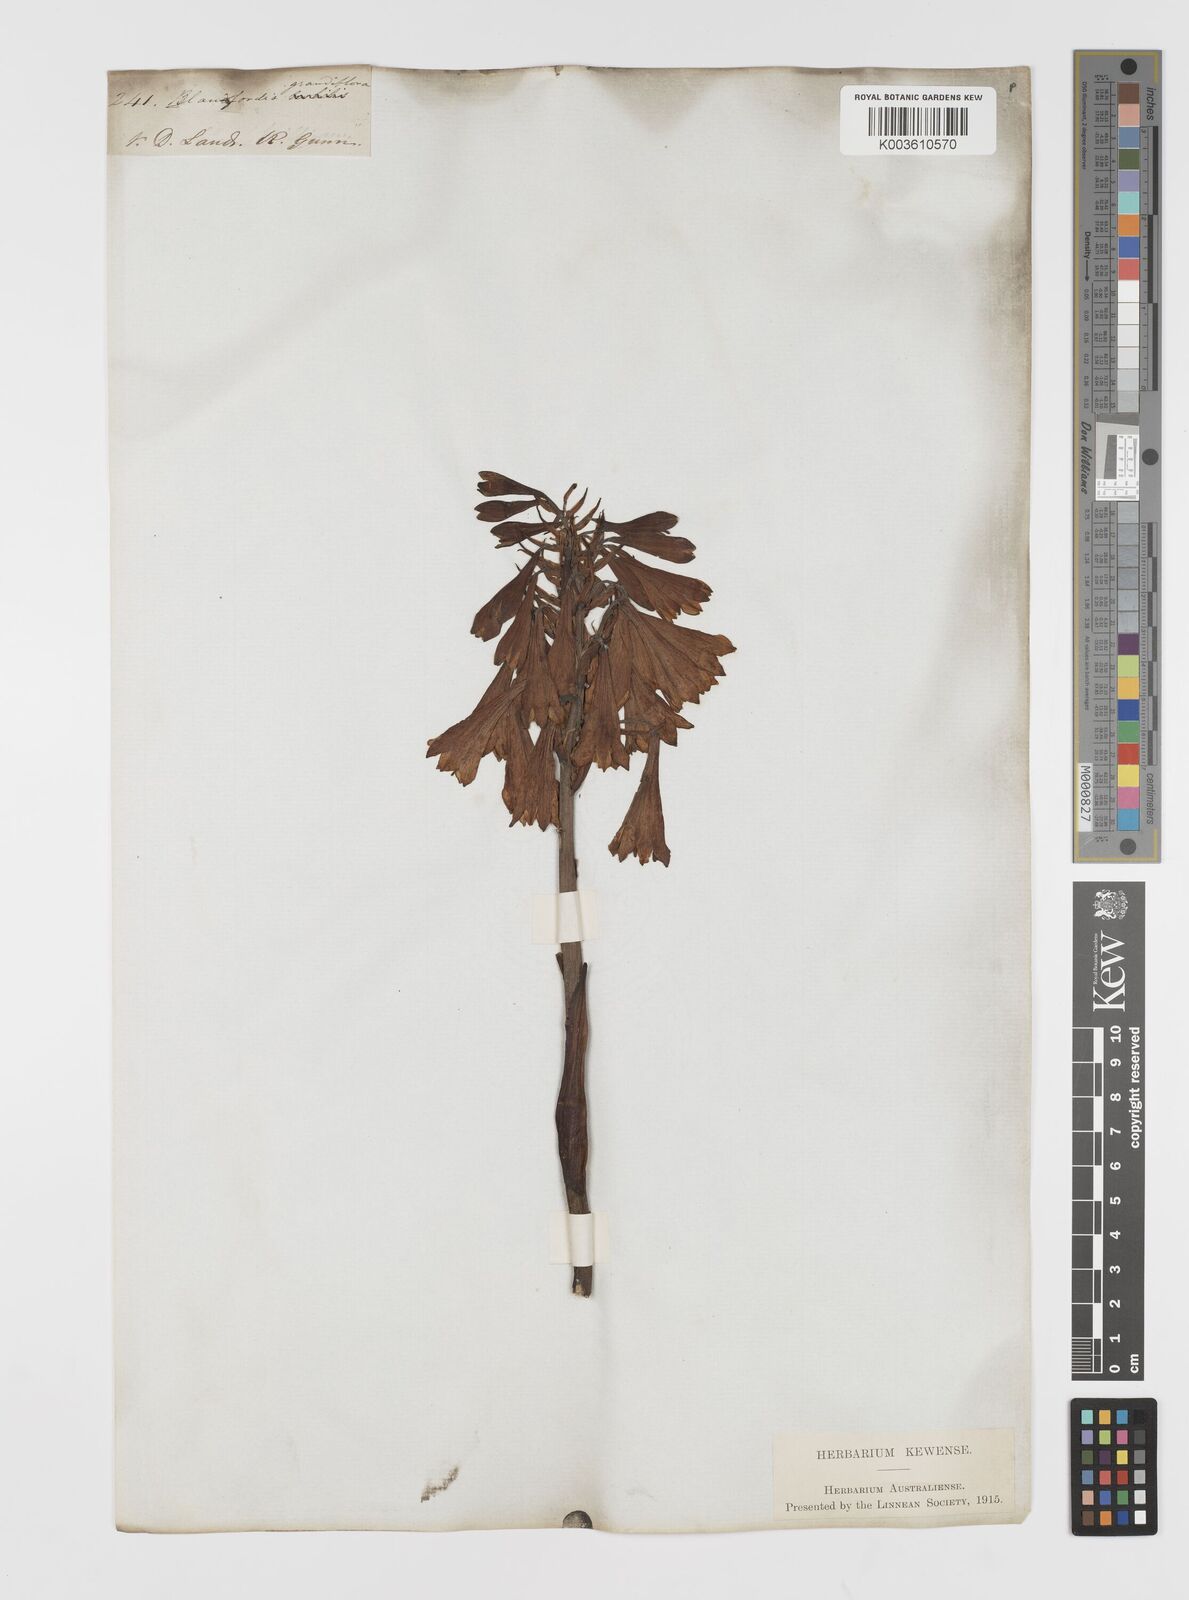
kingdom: Plantae
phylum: Tracheophyta
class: Liliopsida
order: Asparagales
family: Blandfordiaceae
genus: Blandfordia
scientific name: Blandfordia punicea
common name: Tasmanian christmas-bell
